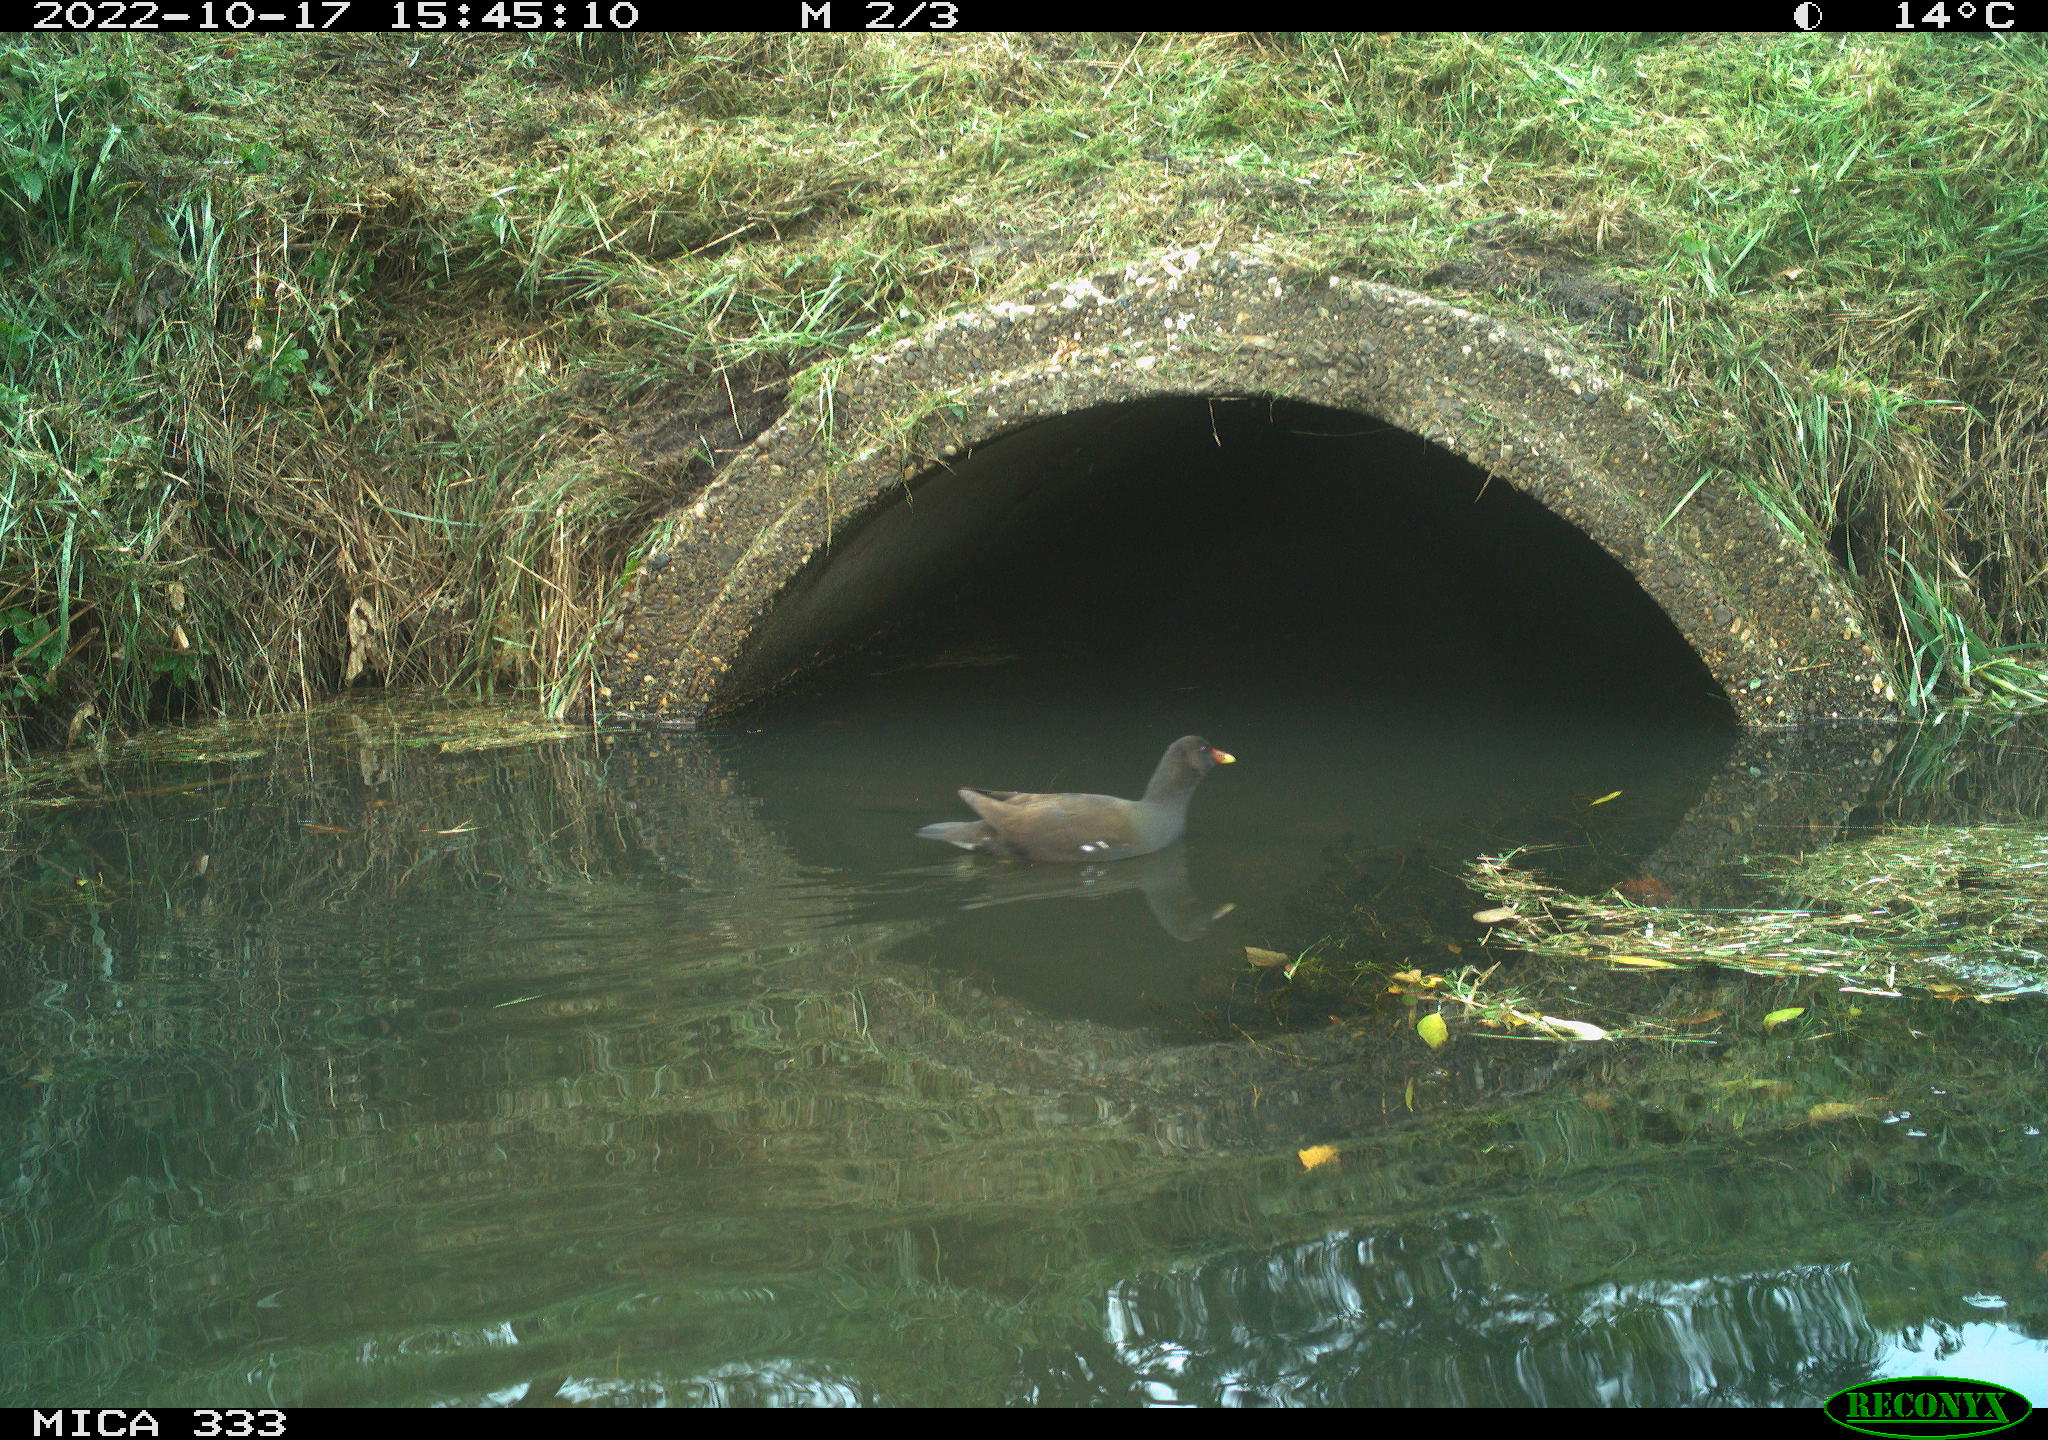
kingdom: Animalia
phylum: Chordata
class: Aves
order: Gruiformes
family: Rallidae
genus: Gallinula
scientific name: Gallinula chloropus
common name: Common moorhen
